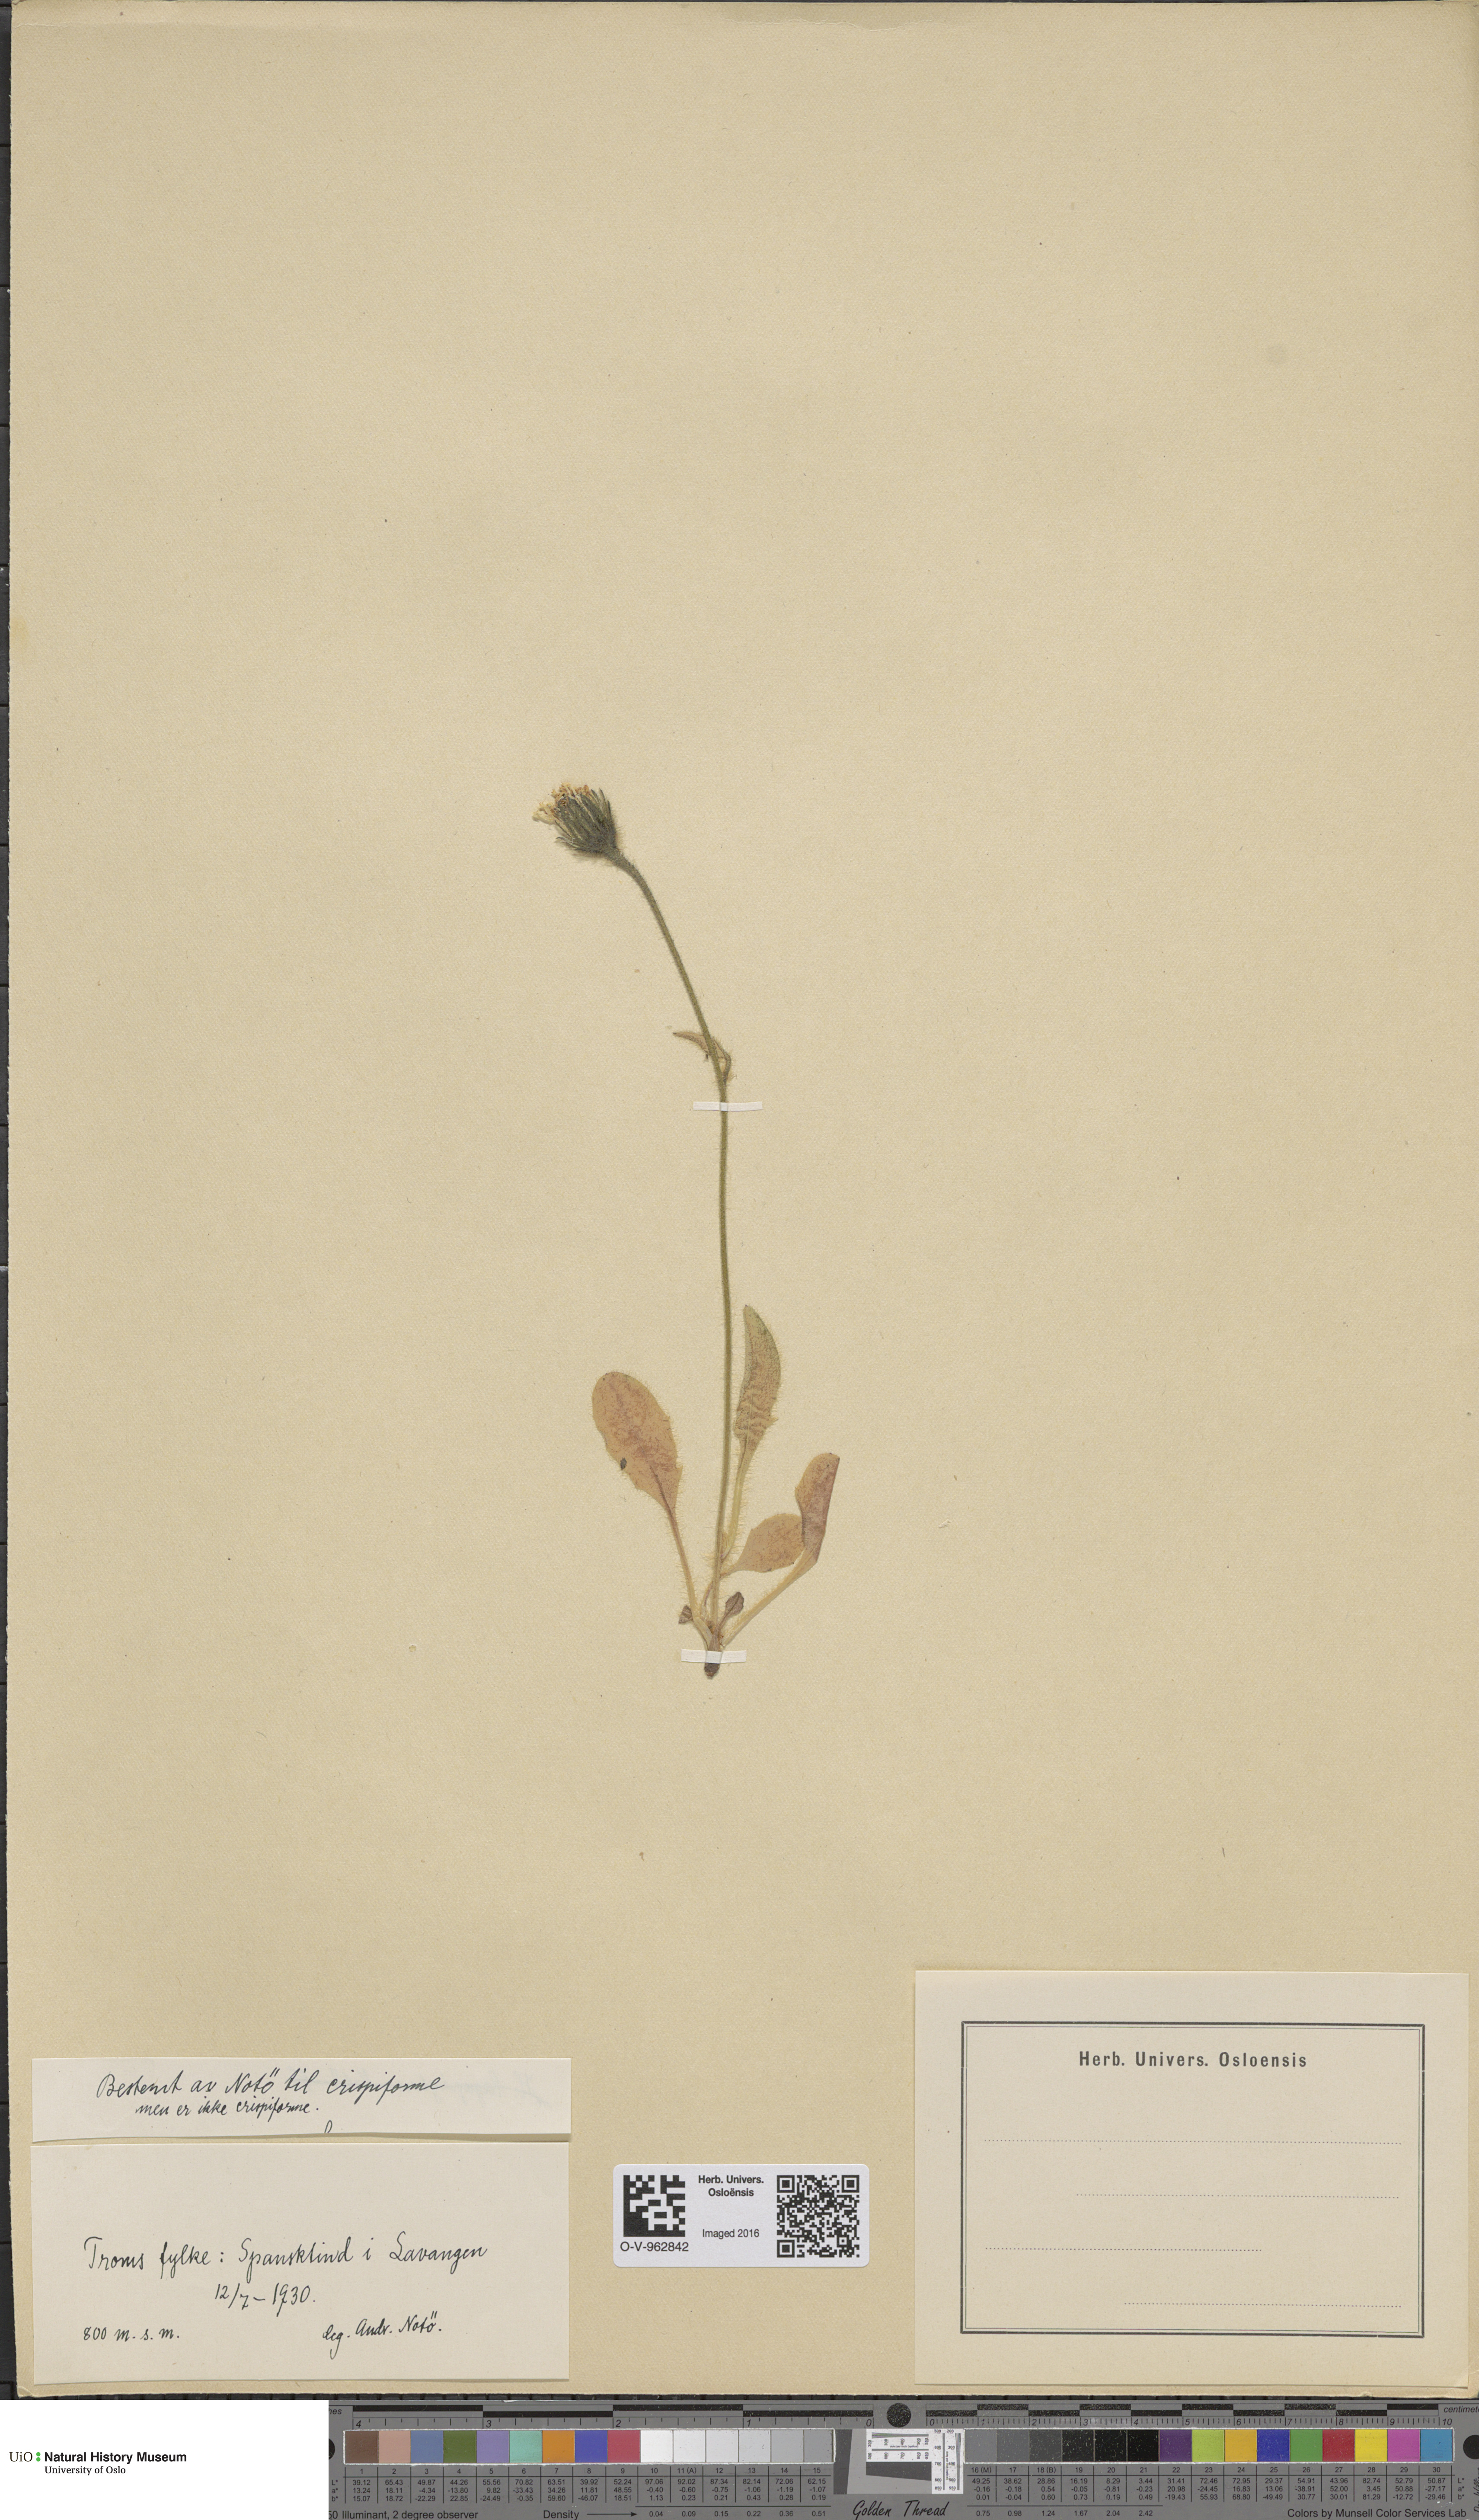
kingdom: Plantae
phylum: Tracheophyta
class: Magnoliopsida
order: Asterales
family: Asteraceae
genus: Hieracium
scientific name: Hieracium
